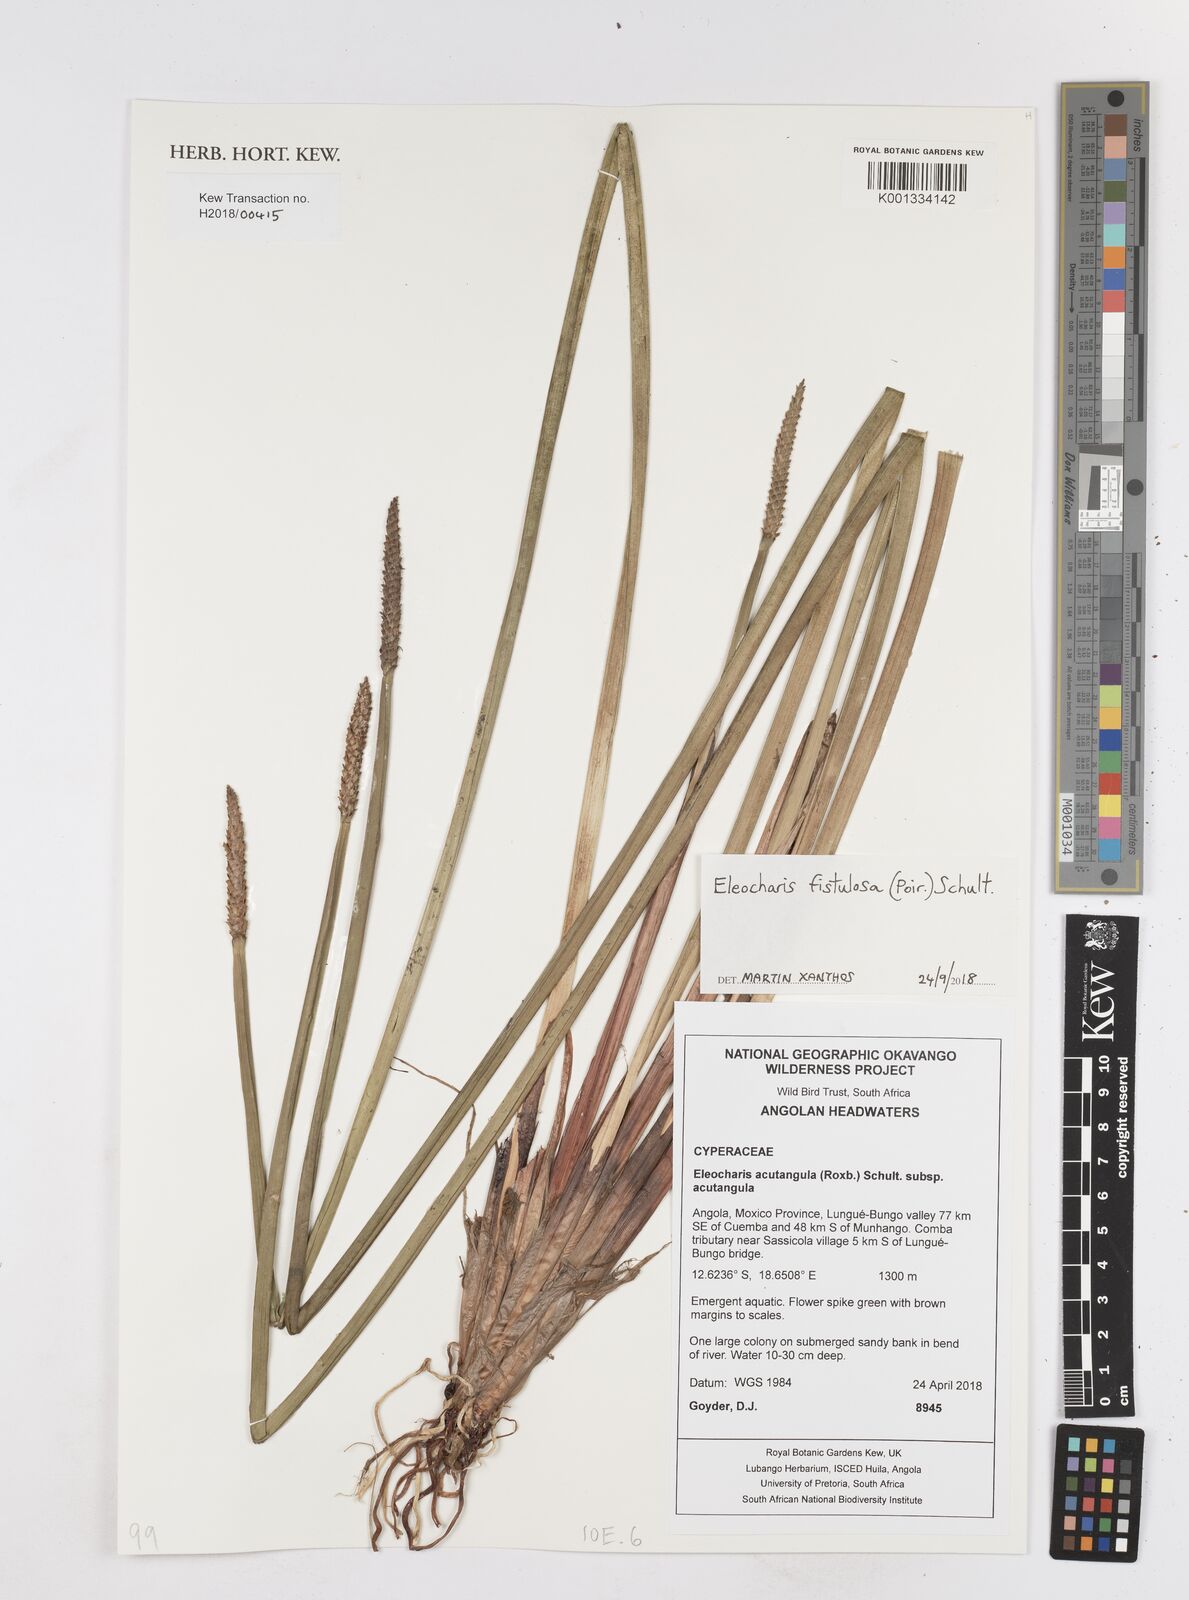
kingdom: Plantae
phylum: Tracheophyta
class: Liliopsida
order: Poales
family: Cyperaceae
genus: Eleocharis
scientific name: Eleocharis acutangula
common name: Acute spikerush
